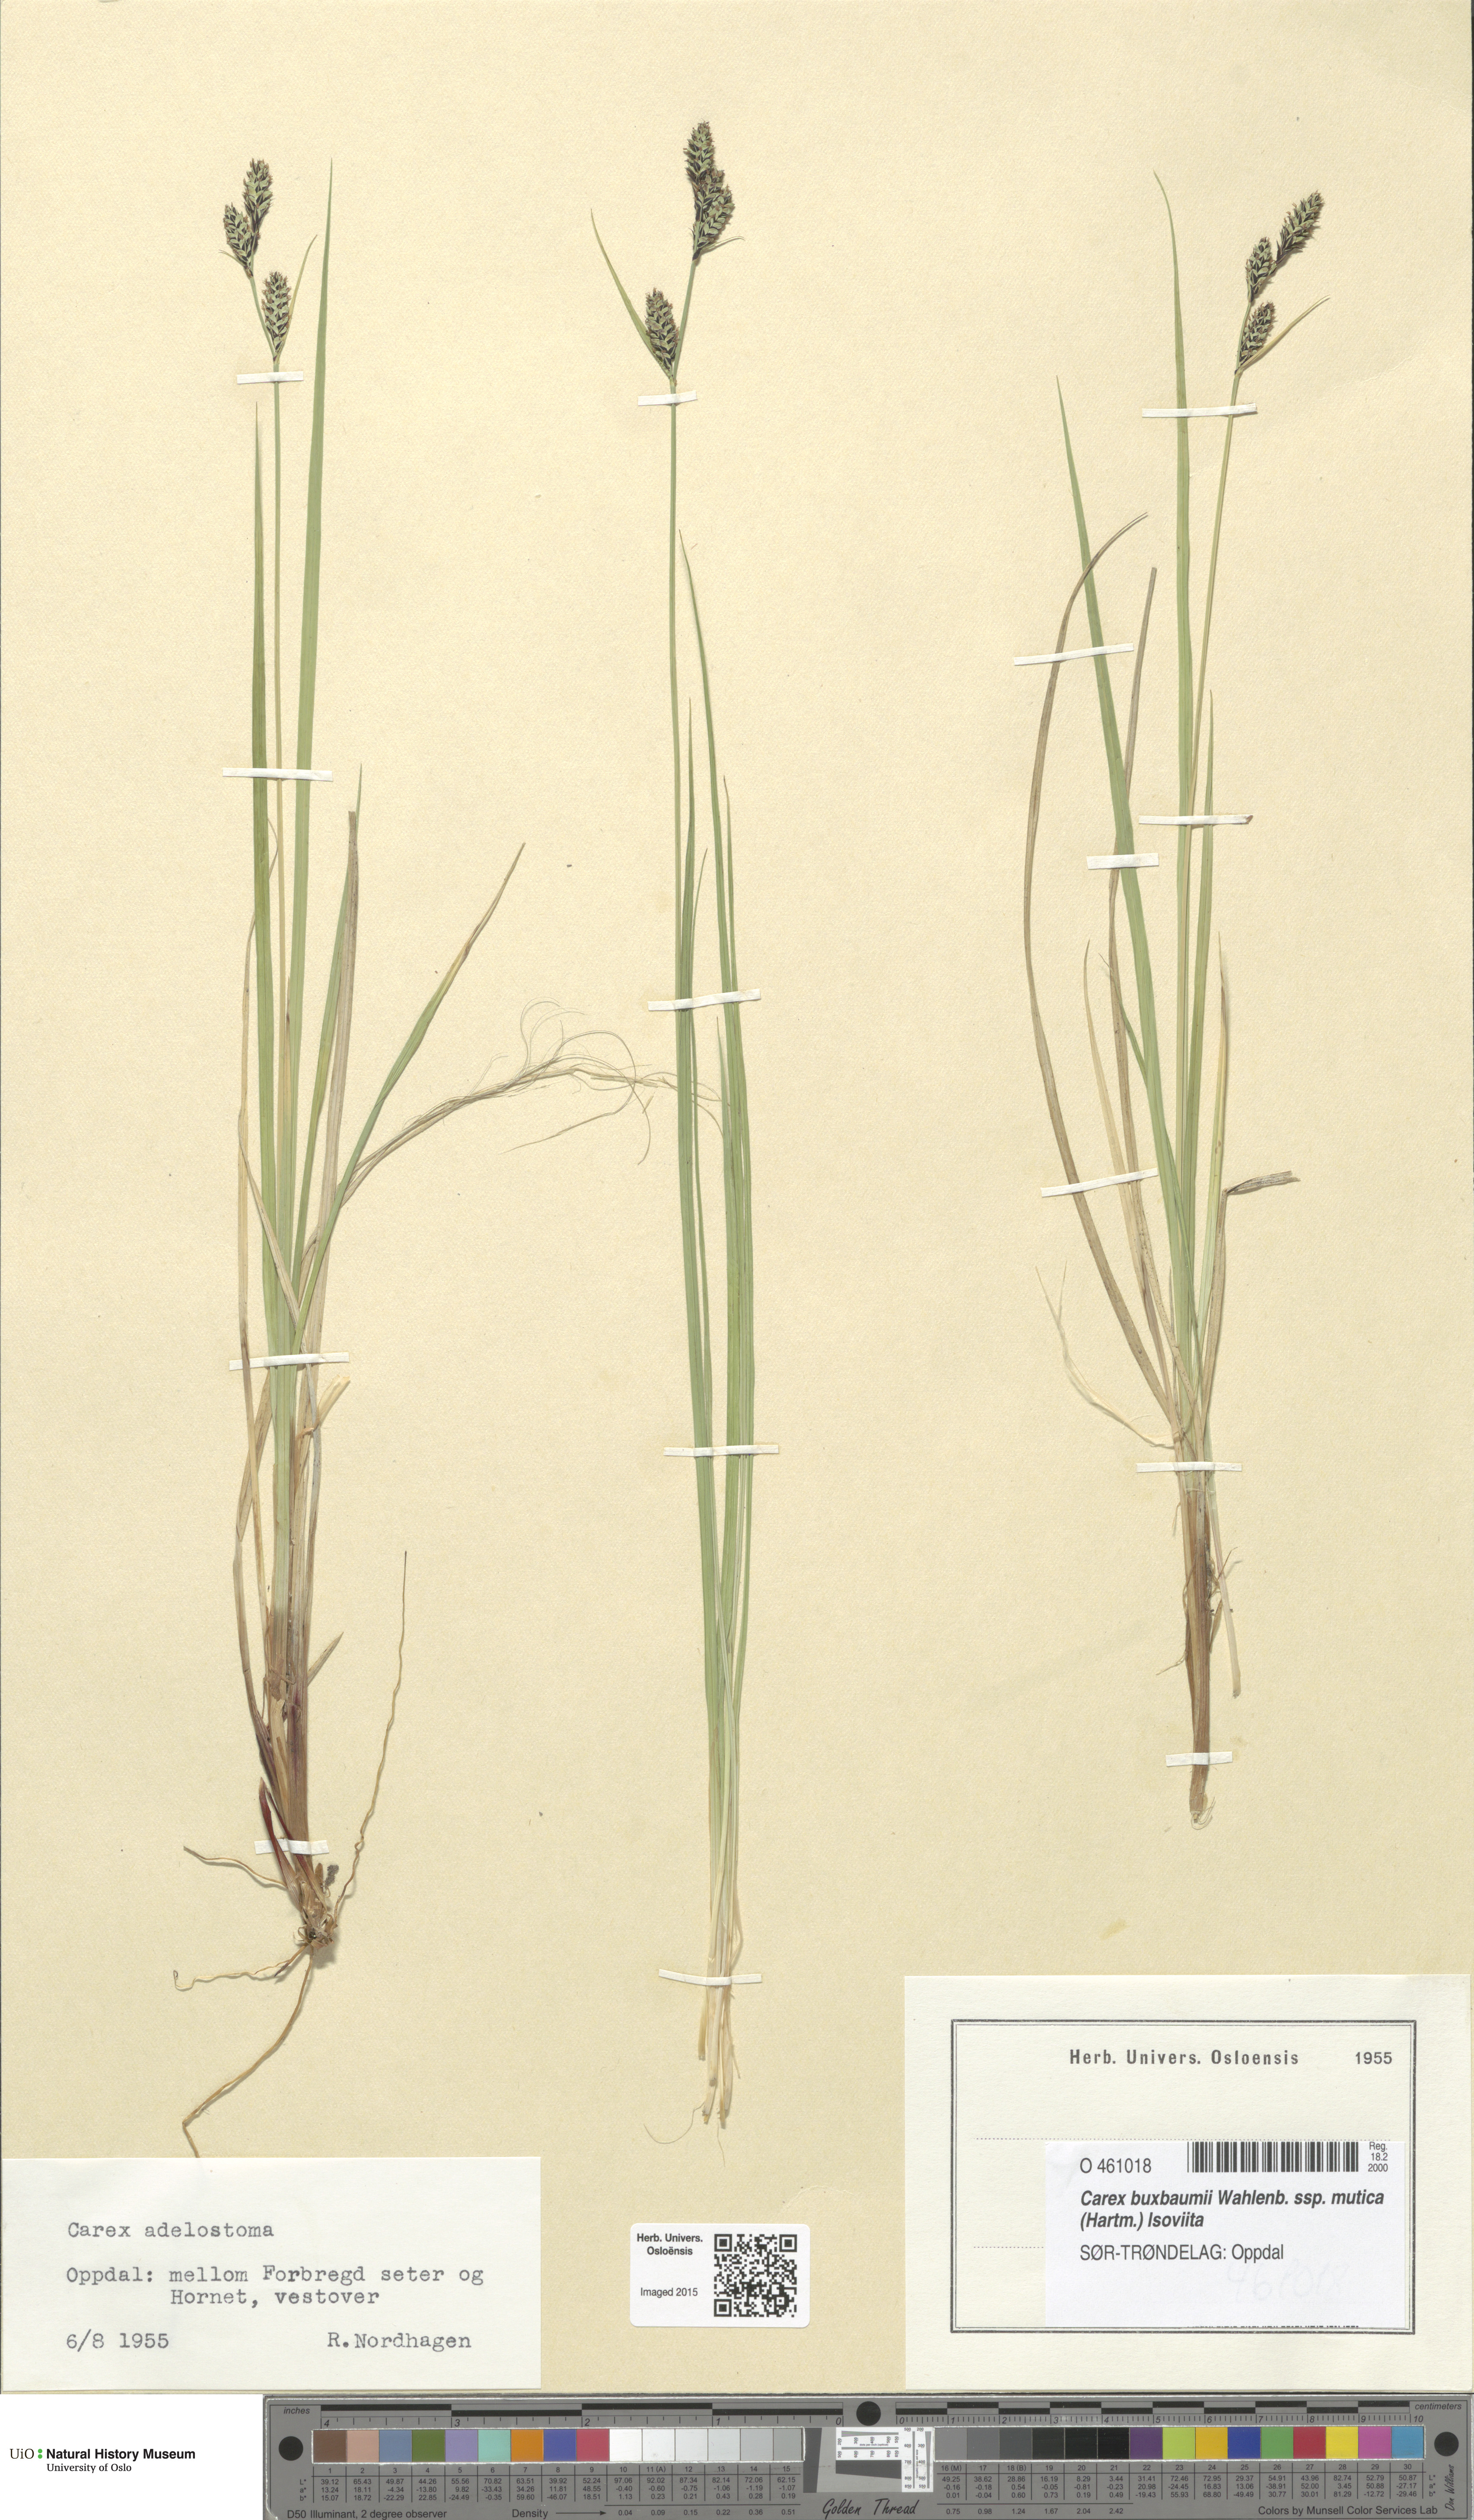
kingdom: Plantae
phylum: Tracheophyta
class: Liliopsida
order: Poales
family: Cyperaceae
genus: Carex
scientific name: Carex adelostoma
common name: Circumpolar sedge
